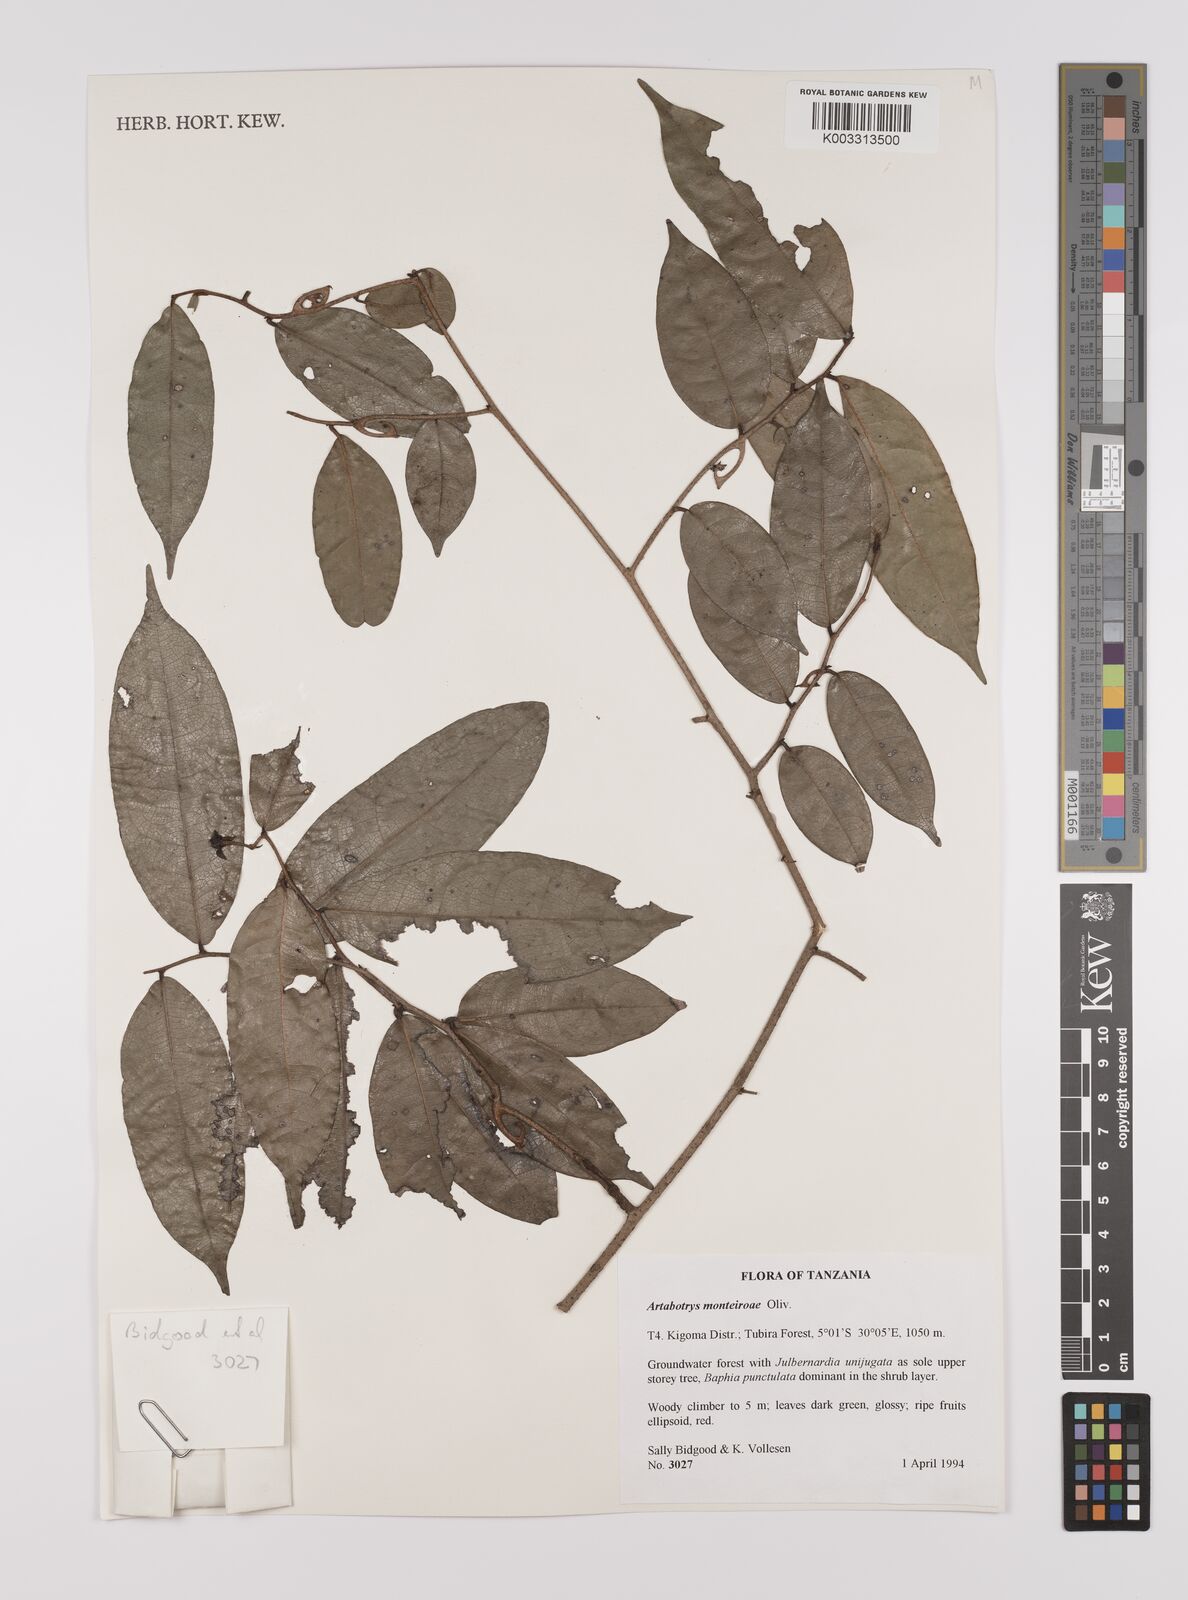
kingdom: Plantae
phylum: Tracheophyta
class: Magnoliopsida
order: Magnoliales
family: Annonaceae
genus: Artabotrys
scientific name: Artabotrys monteiroae
